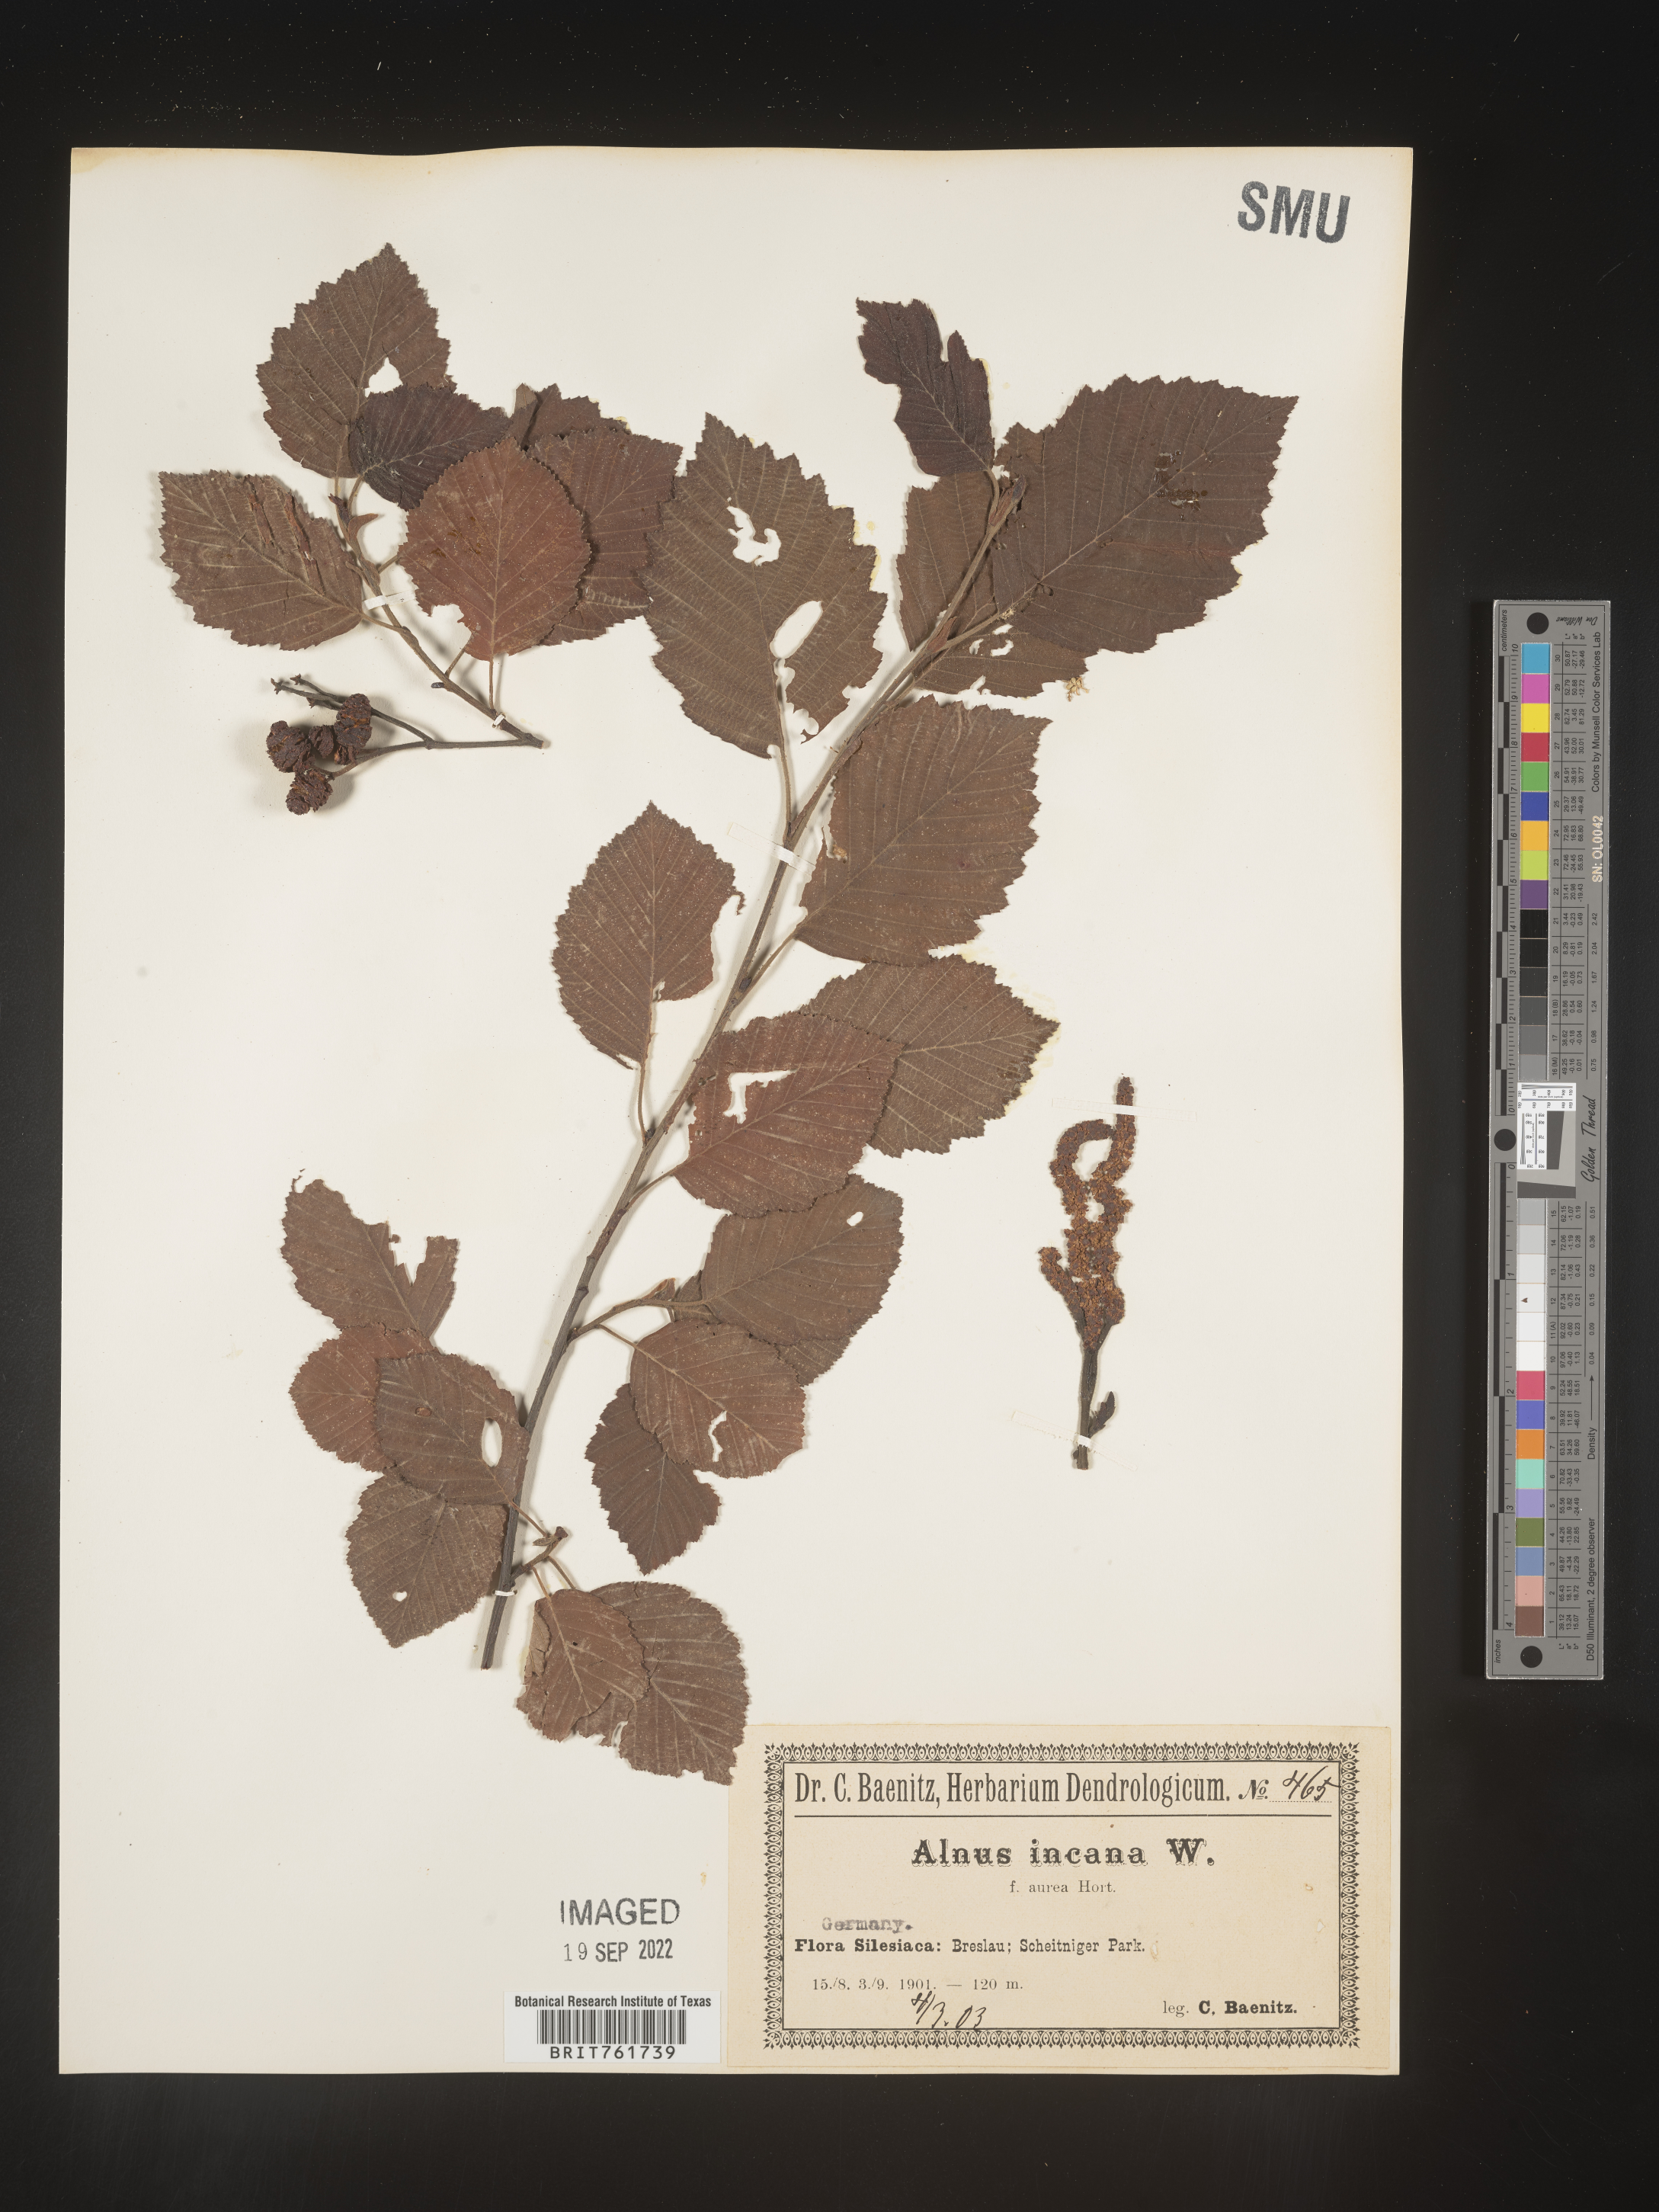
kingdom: Plantae
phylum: Tracheophyta
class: Magnoliopsida
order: Fagales
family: Betulaceae
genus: Alnus
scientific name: Alnus
